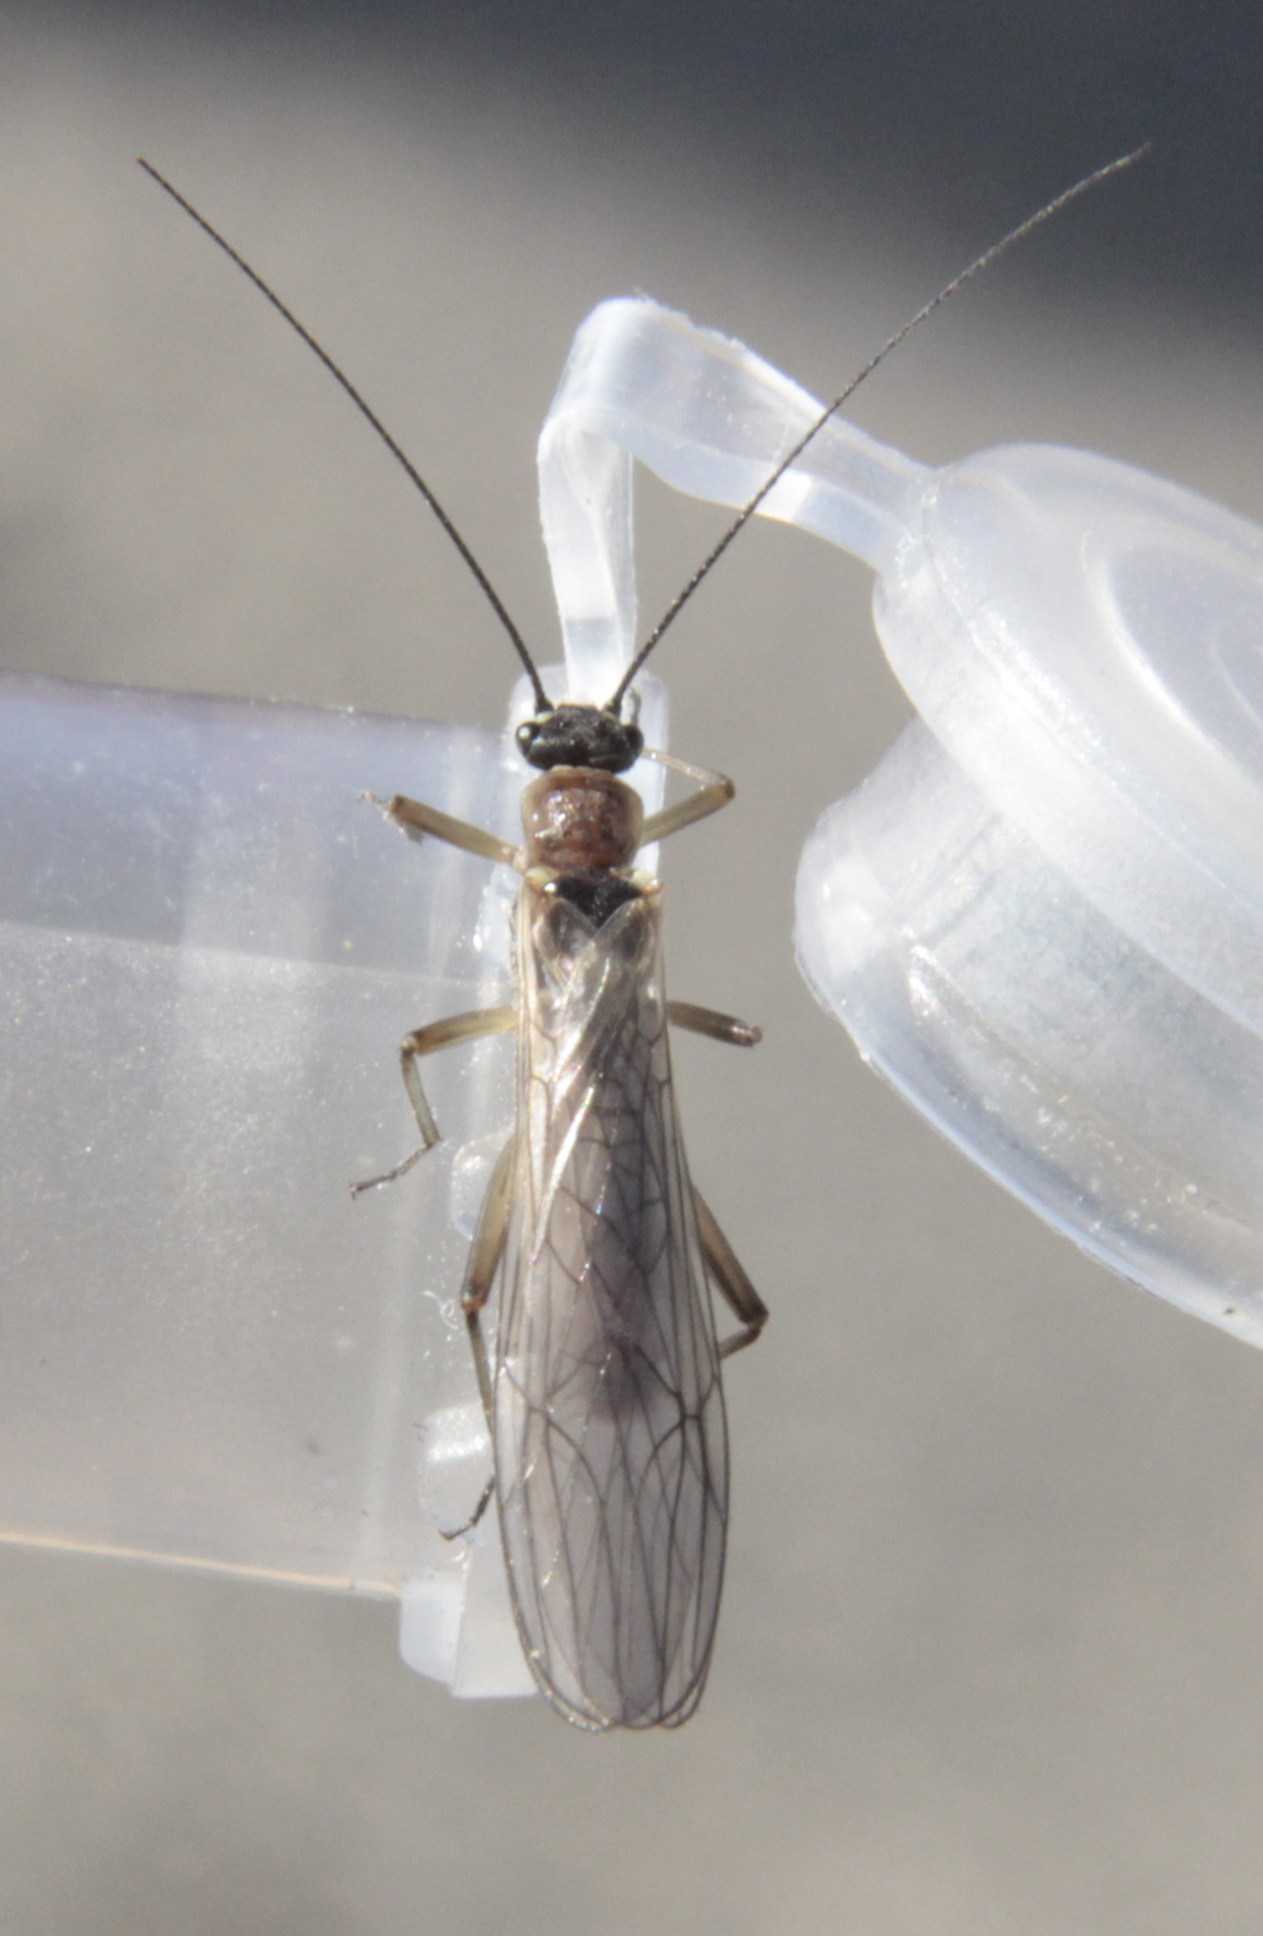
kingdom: Animalia
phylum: Arthropoda
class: Insecta
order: Plecoptera
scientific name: Plecoptera
